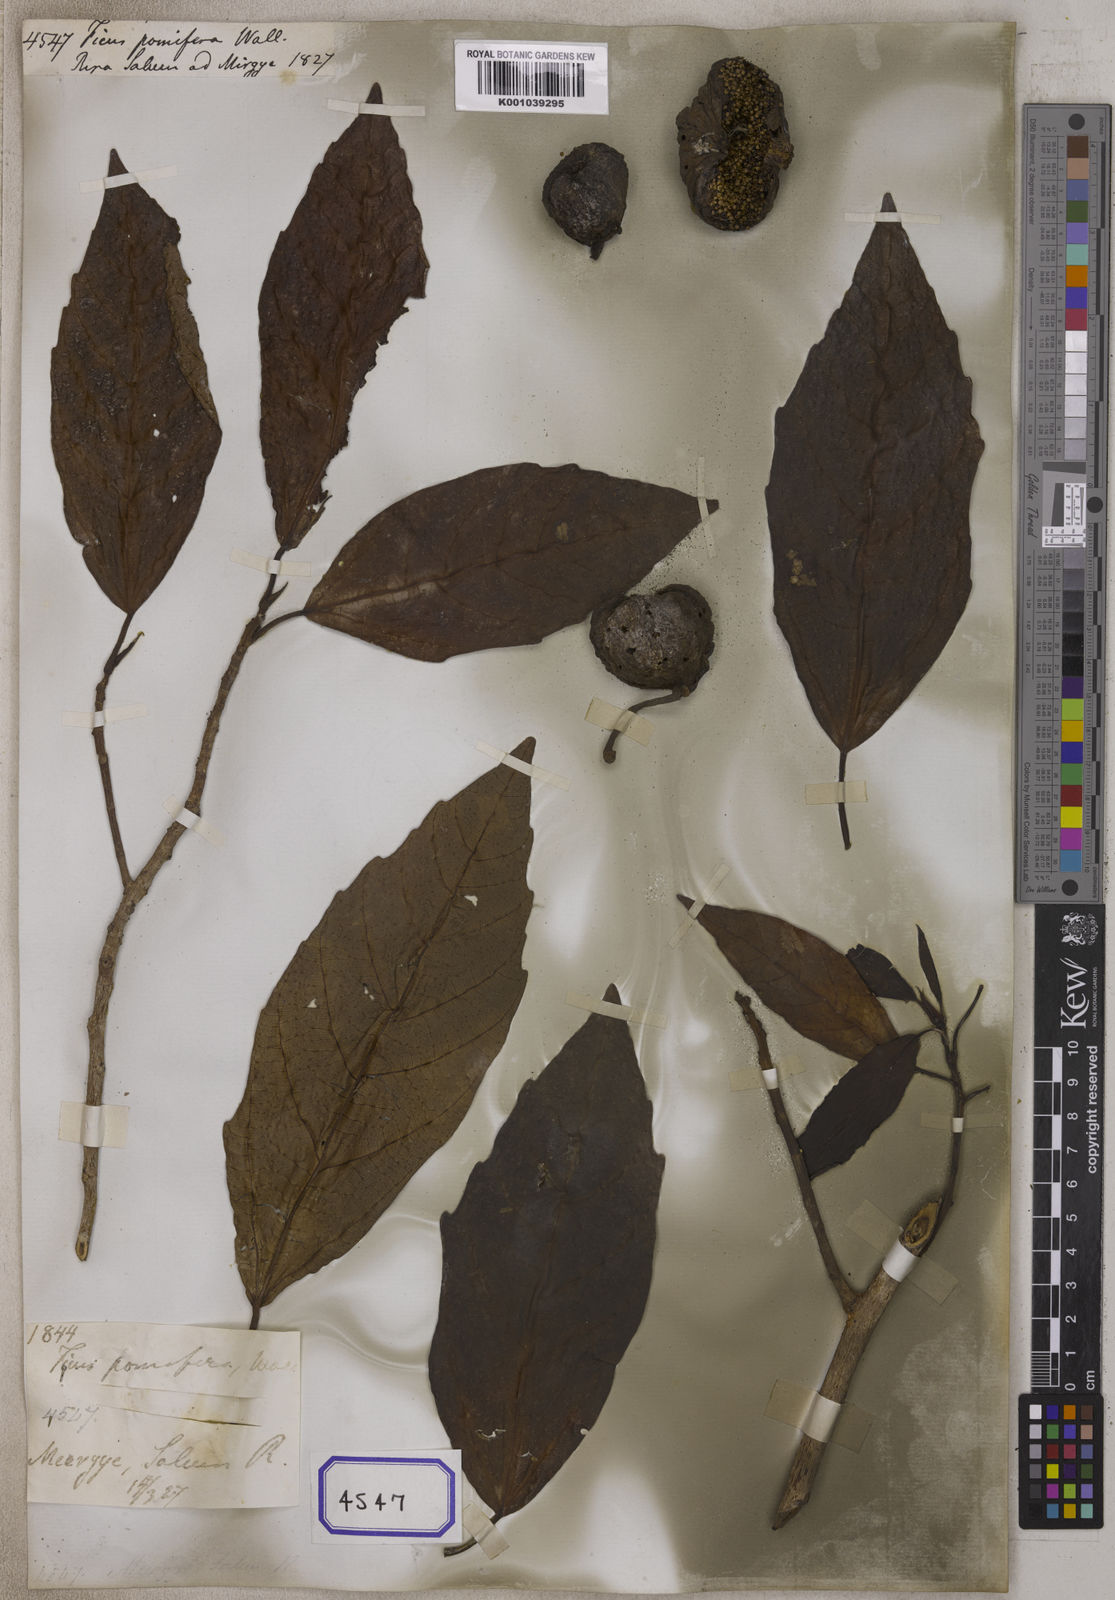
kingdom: Plantae
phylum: Tracheophyta
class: Magnoliopsida
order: Rosales
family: Moraceae
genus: Ficus
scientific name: Ficus
